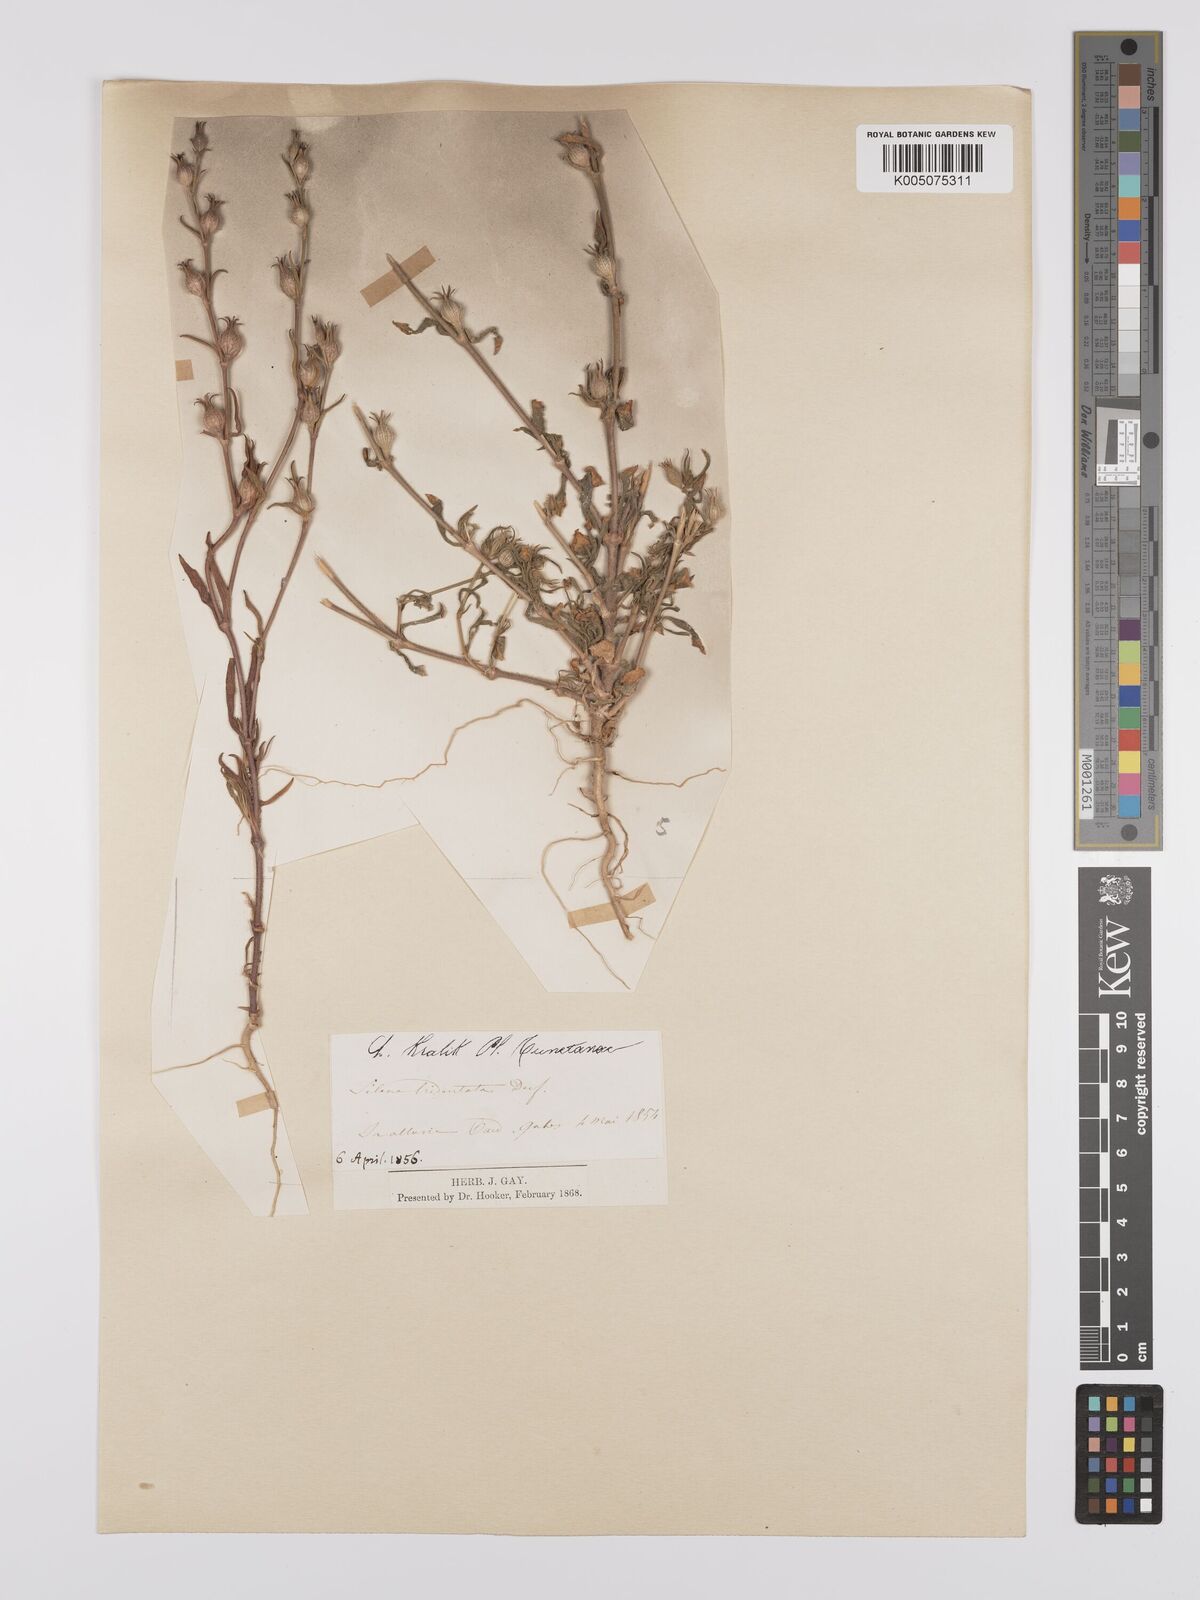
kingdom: Plantae
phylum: Tracheophyta
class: Magnoliopsida
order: Caryophyllales
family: Caryophyllaceae
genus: Silene
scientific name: Silene tridentata
